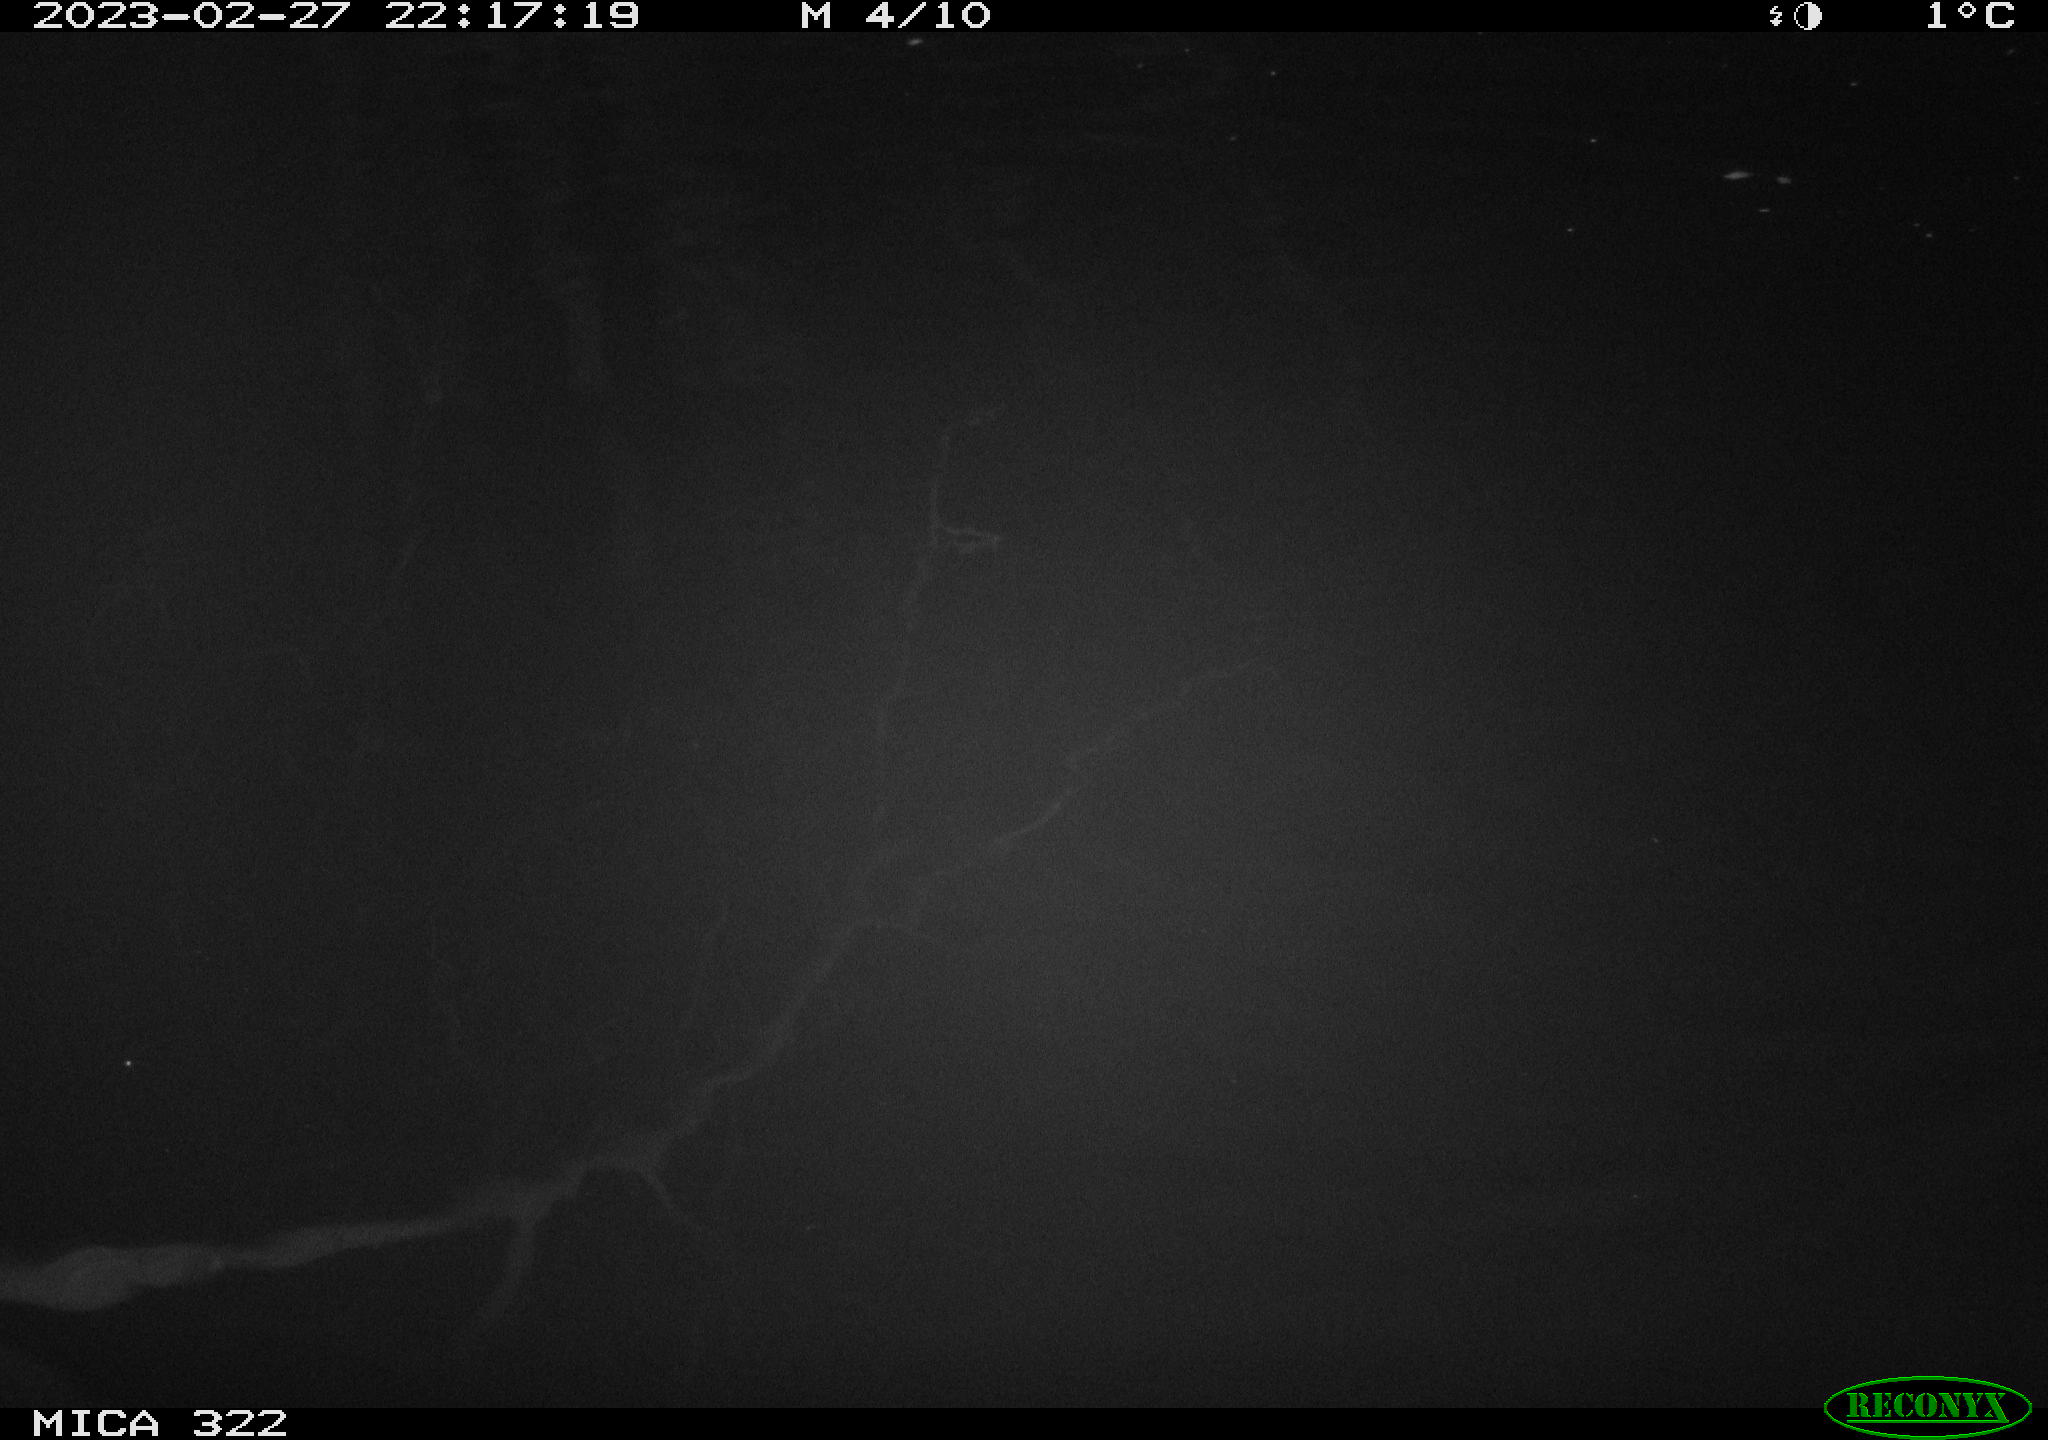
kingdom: Animalia
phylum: Chordata
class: Aves
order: Anseriformes
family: Anatidae
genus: Anas
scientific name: Anas
